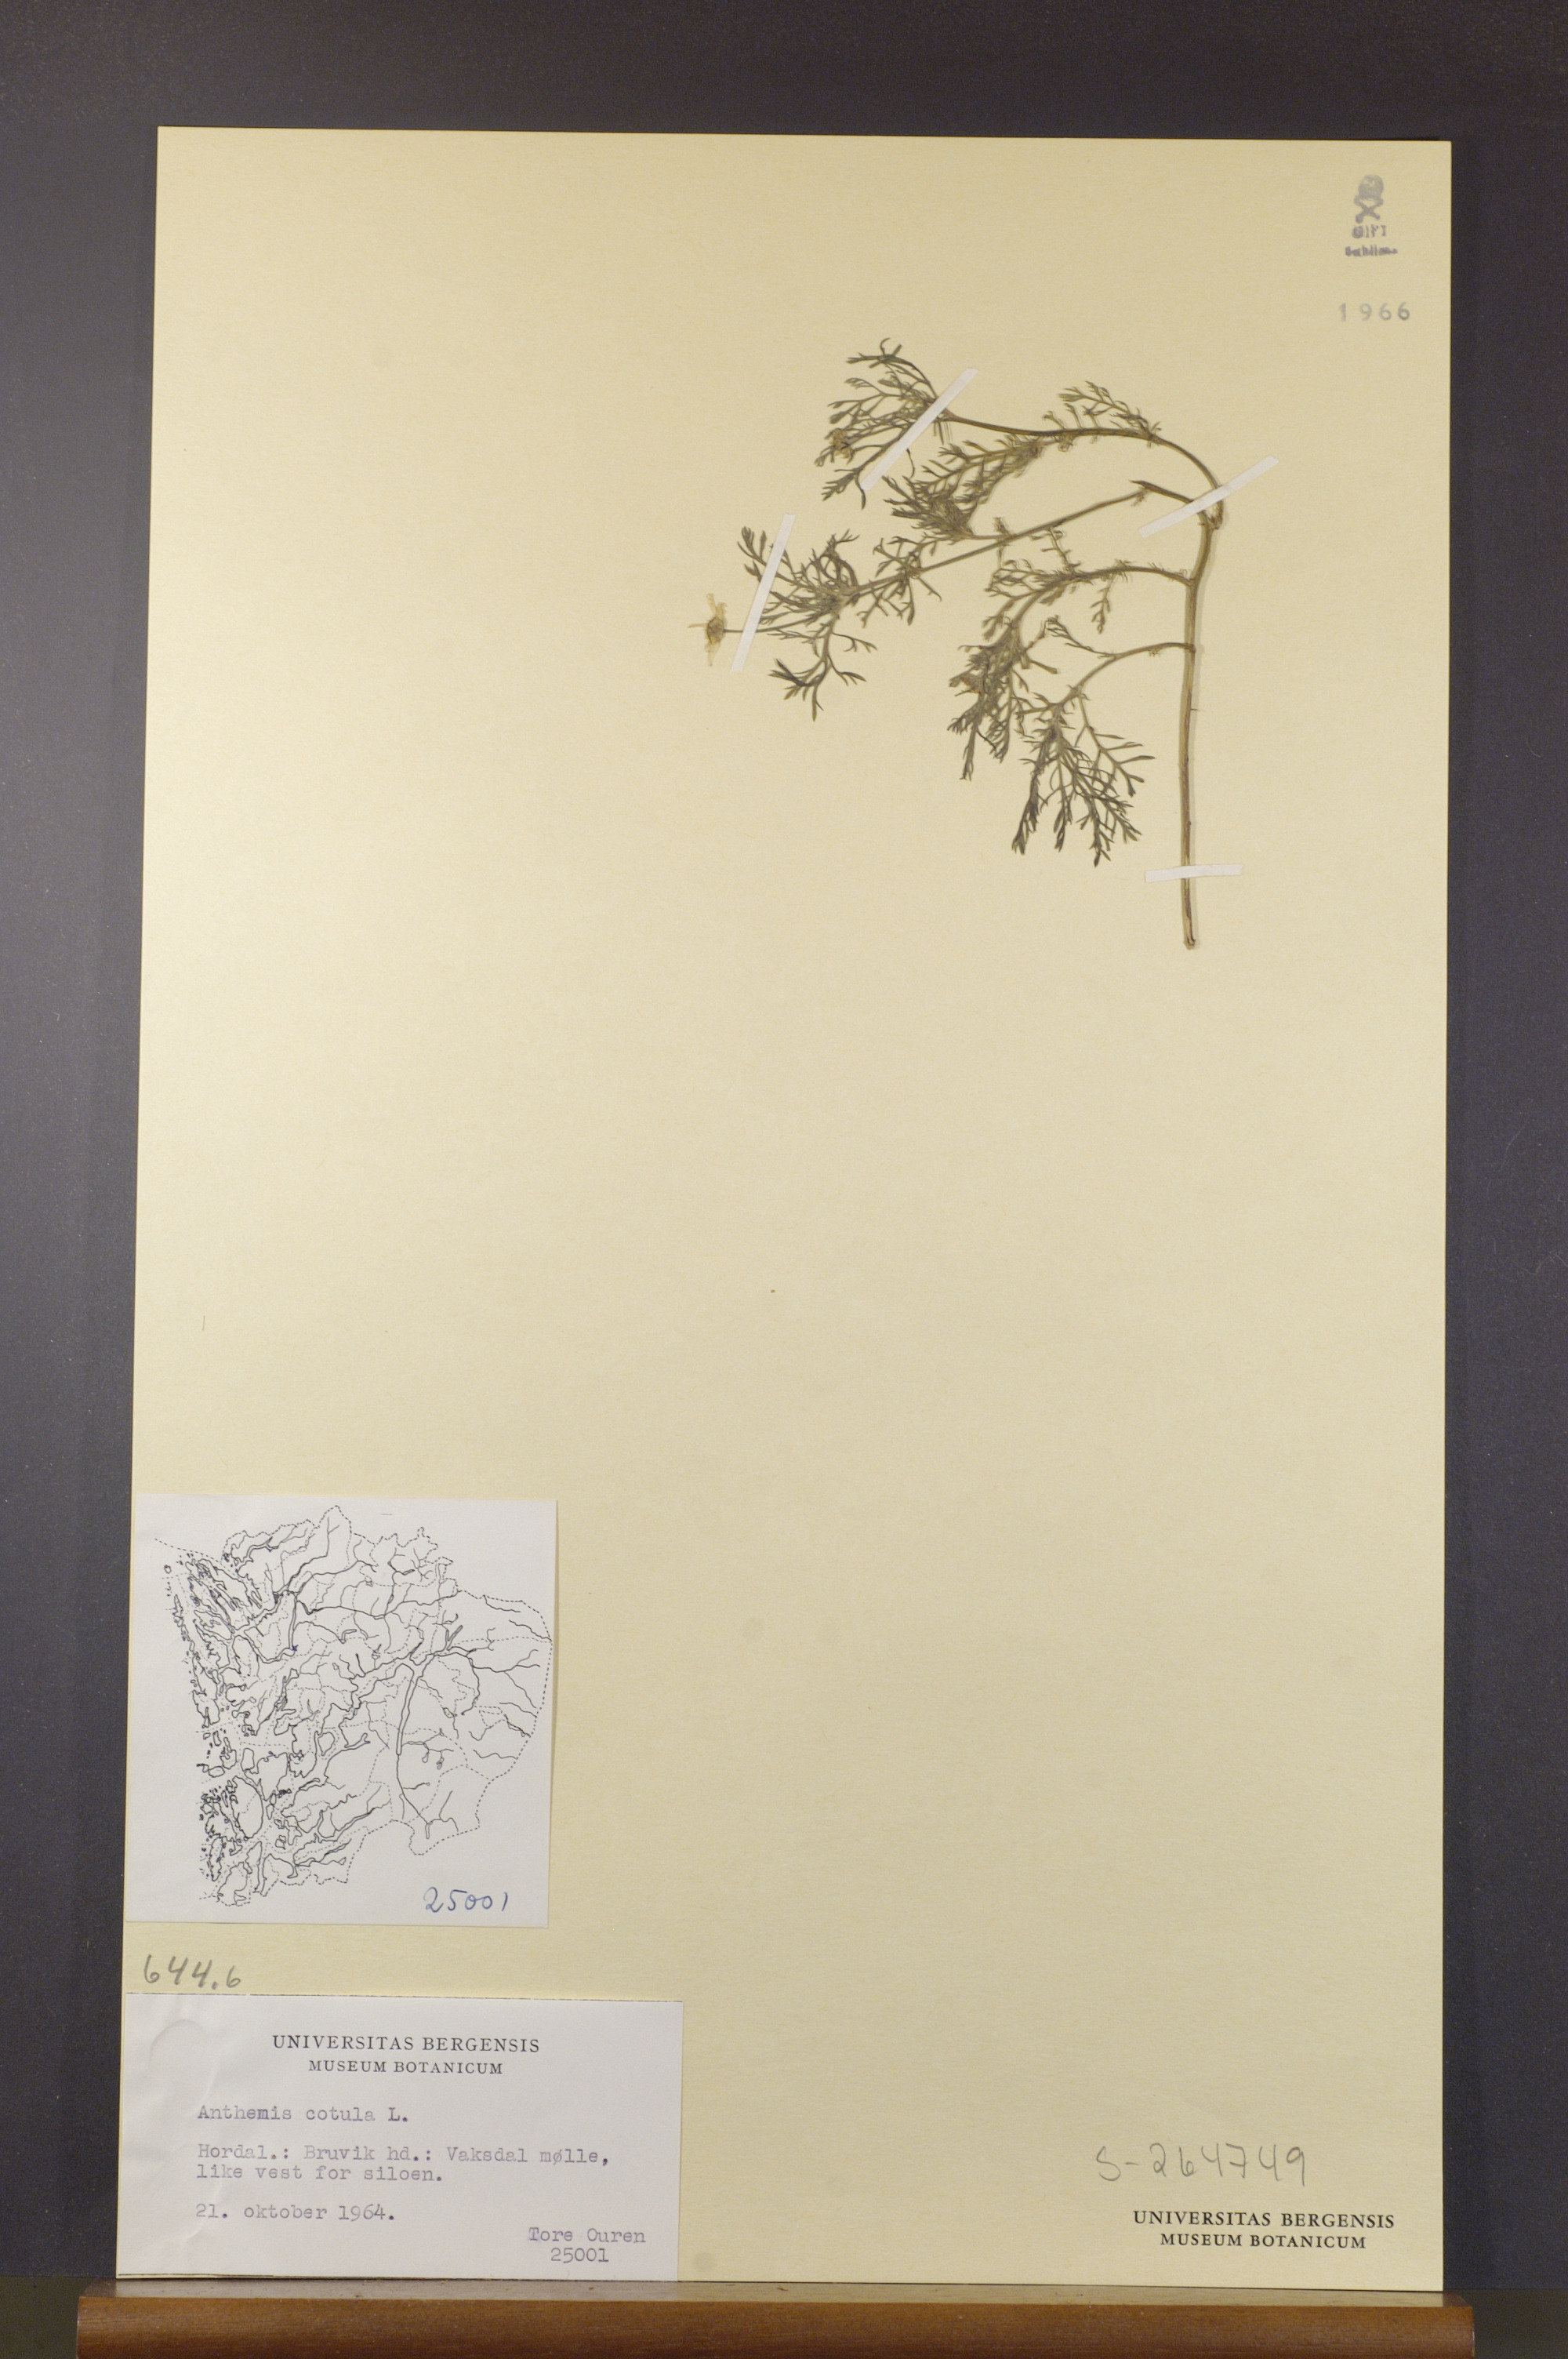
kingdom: Plantae
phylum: Tracheophyta
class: Magnoliopsida
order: Asterales
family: Asteraceae
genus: Anthemis
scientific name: Anthemis cotula
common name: Stinking chamomile
